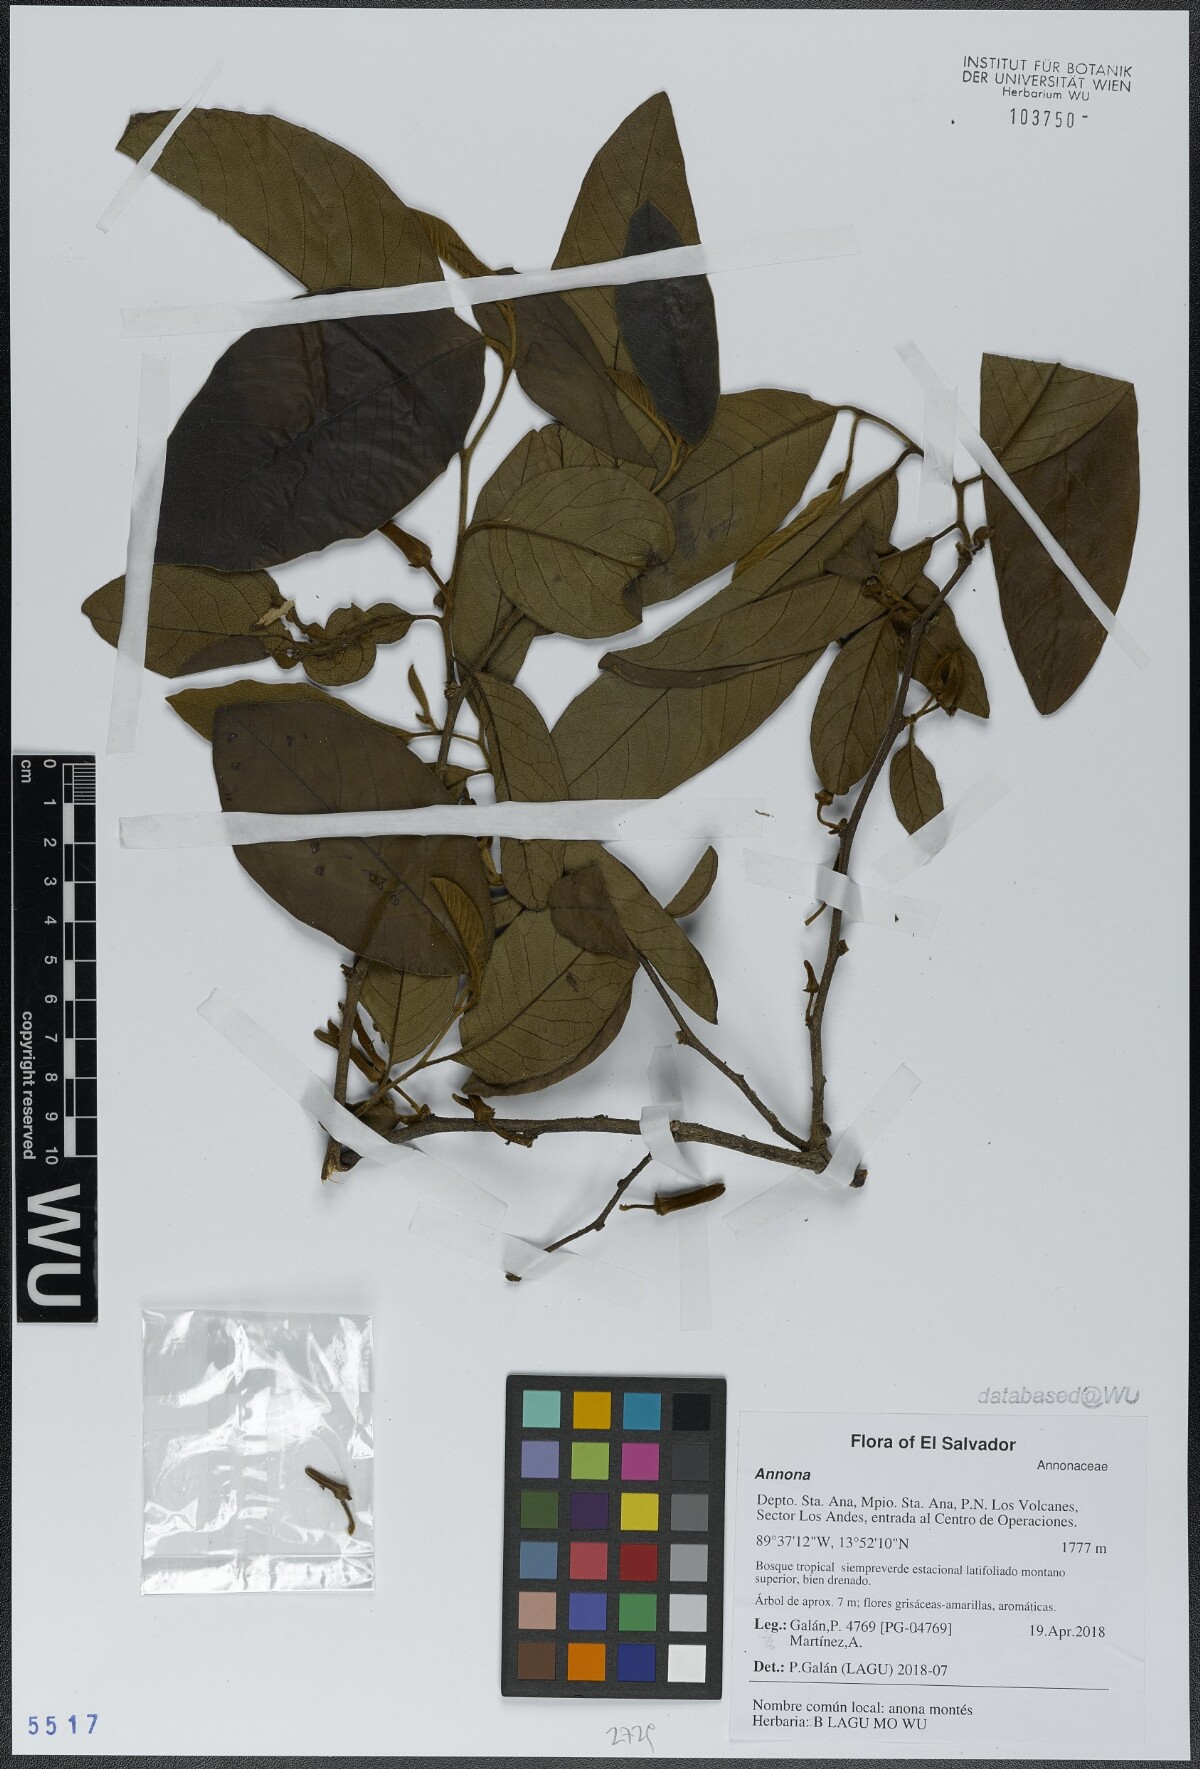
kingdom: Plantae
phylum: Tracheophyta
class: Magnoliopsida
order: Magnoliales
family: Annonaceae
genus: Annona
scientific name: Annona
